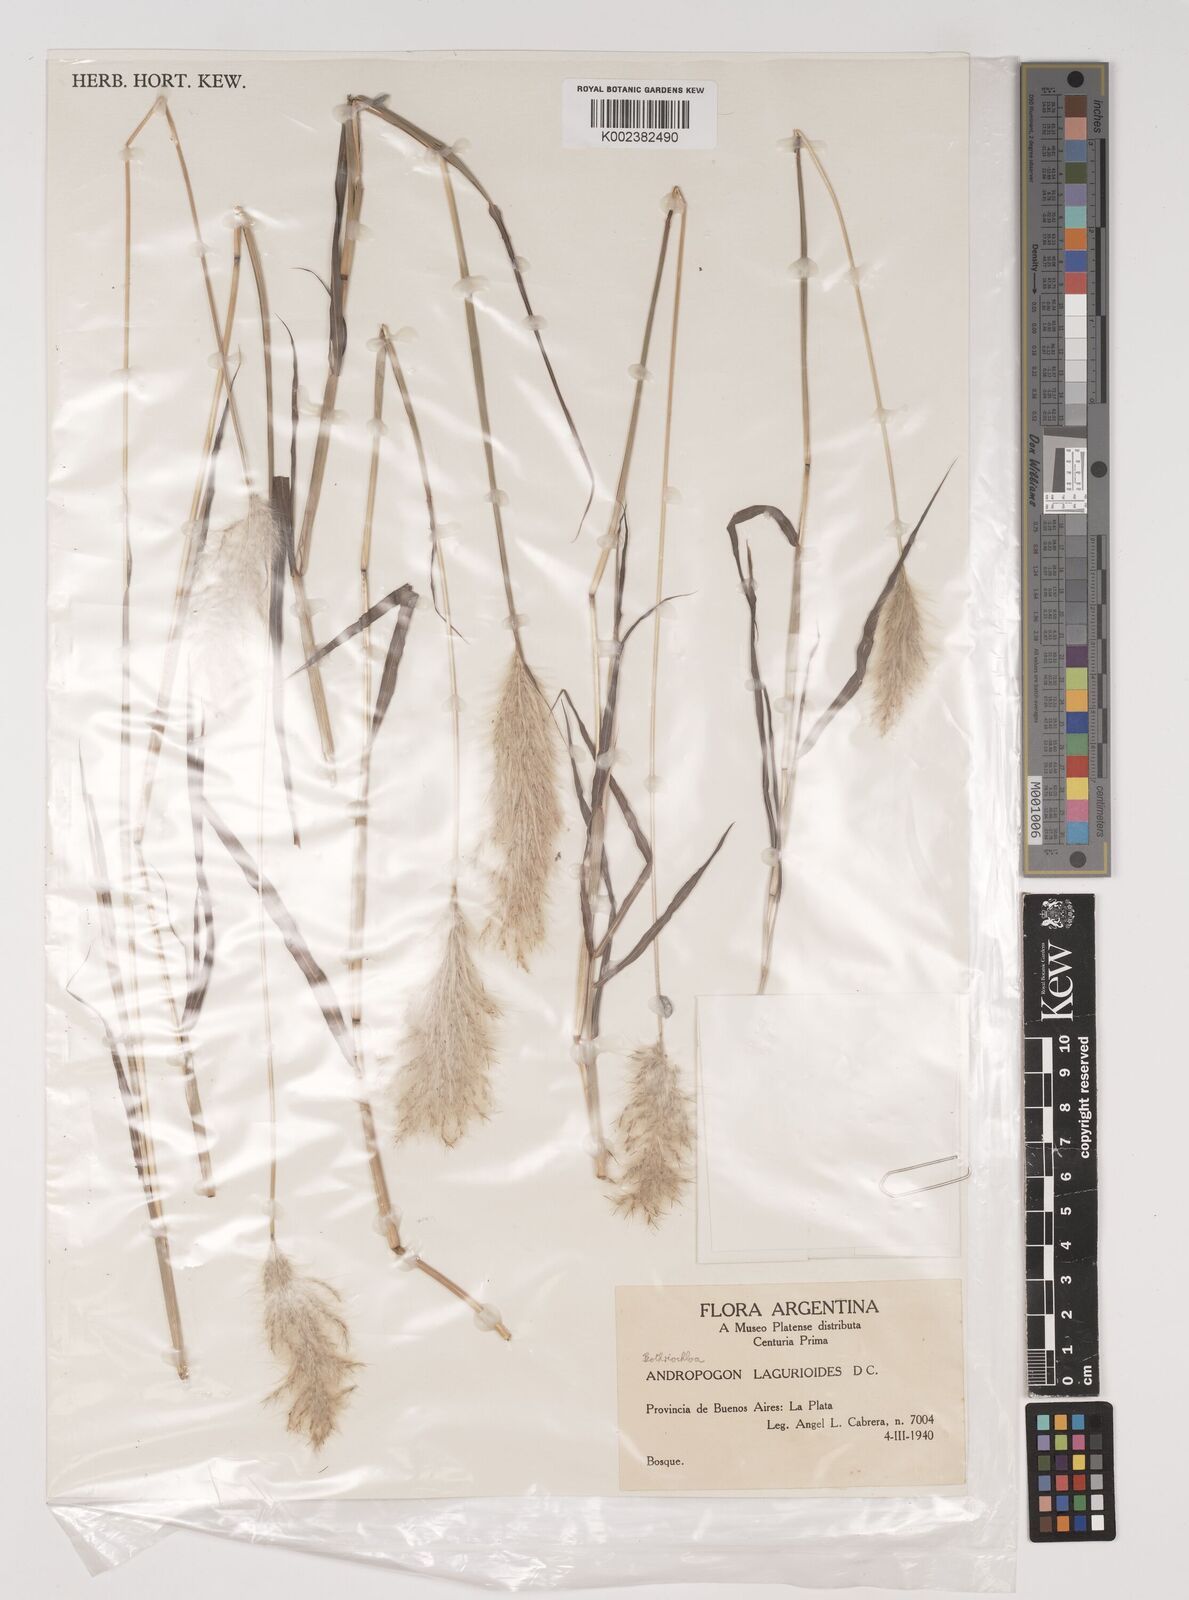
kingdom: Plantae
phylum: Tracheophyta
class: Liliopsida
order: Poales
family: Poaceae
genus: Bothriochloa
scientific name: Bothriochloa laguroides
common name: Silver bluestem
